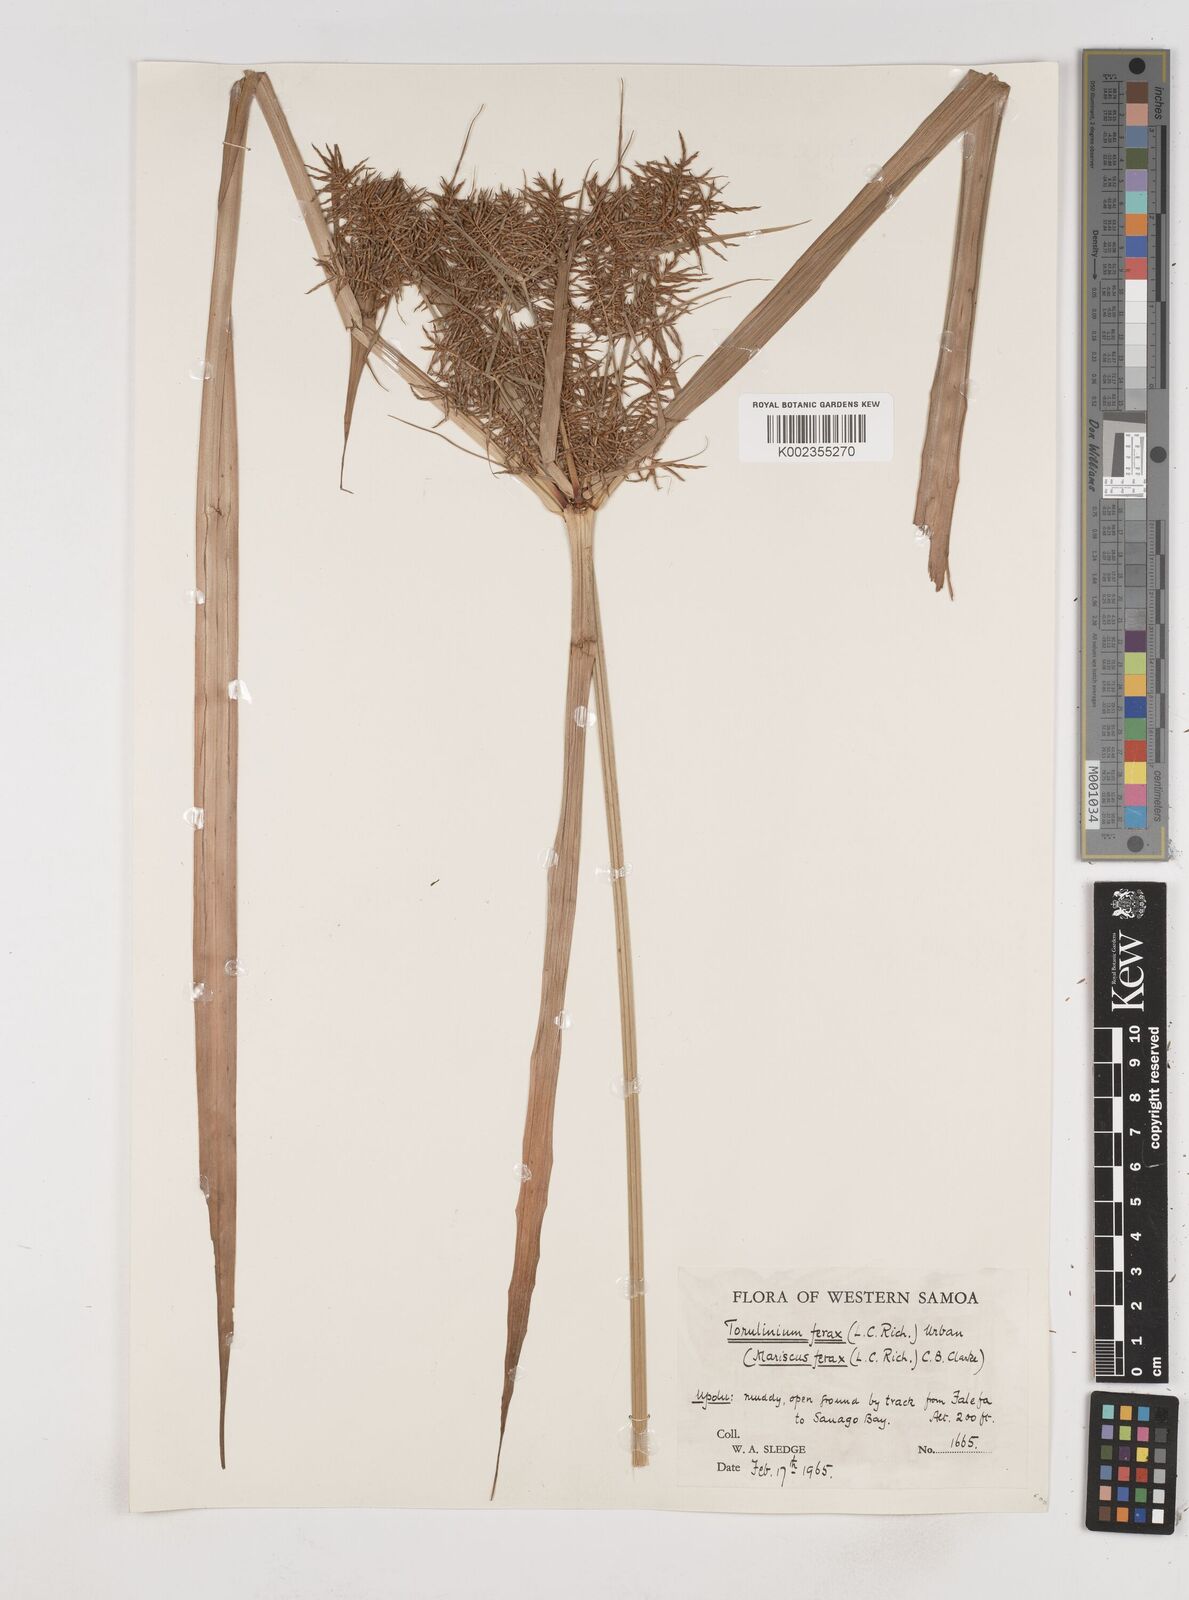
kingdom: Plantae
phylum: Tracheophyta
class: Liliopsida
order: Poales
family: Cyperaceae
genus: Cyperus
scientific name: Cyperus odoratus
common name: Fragrant flatsedge
